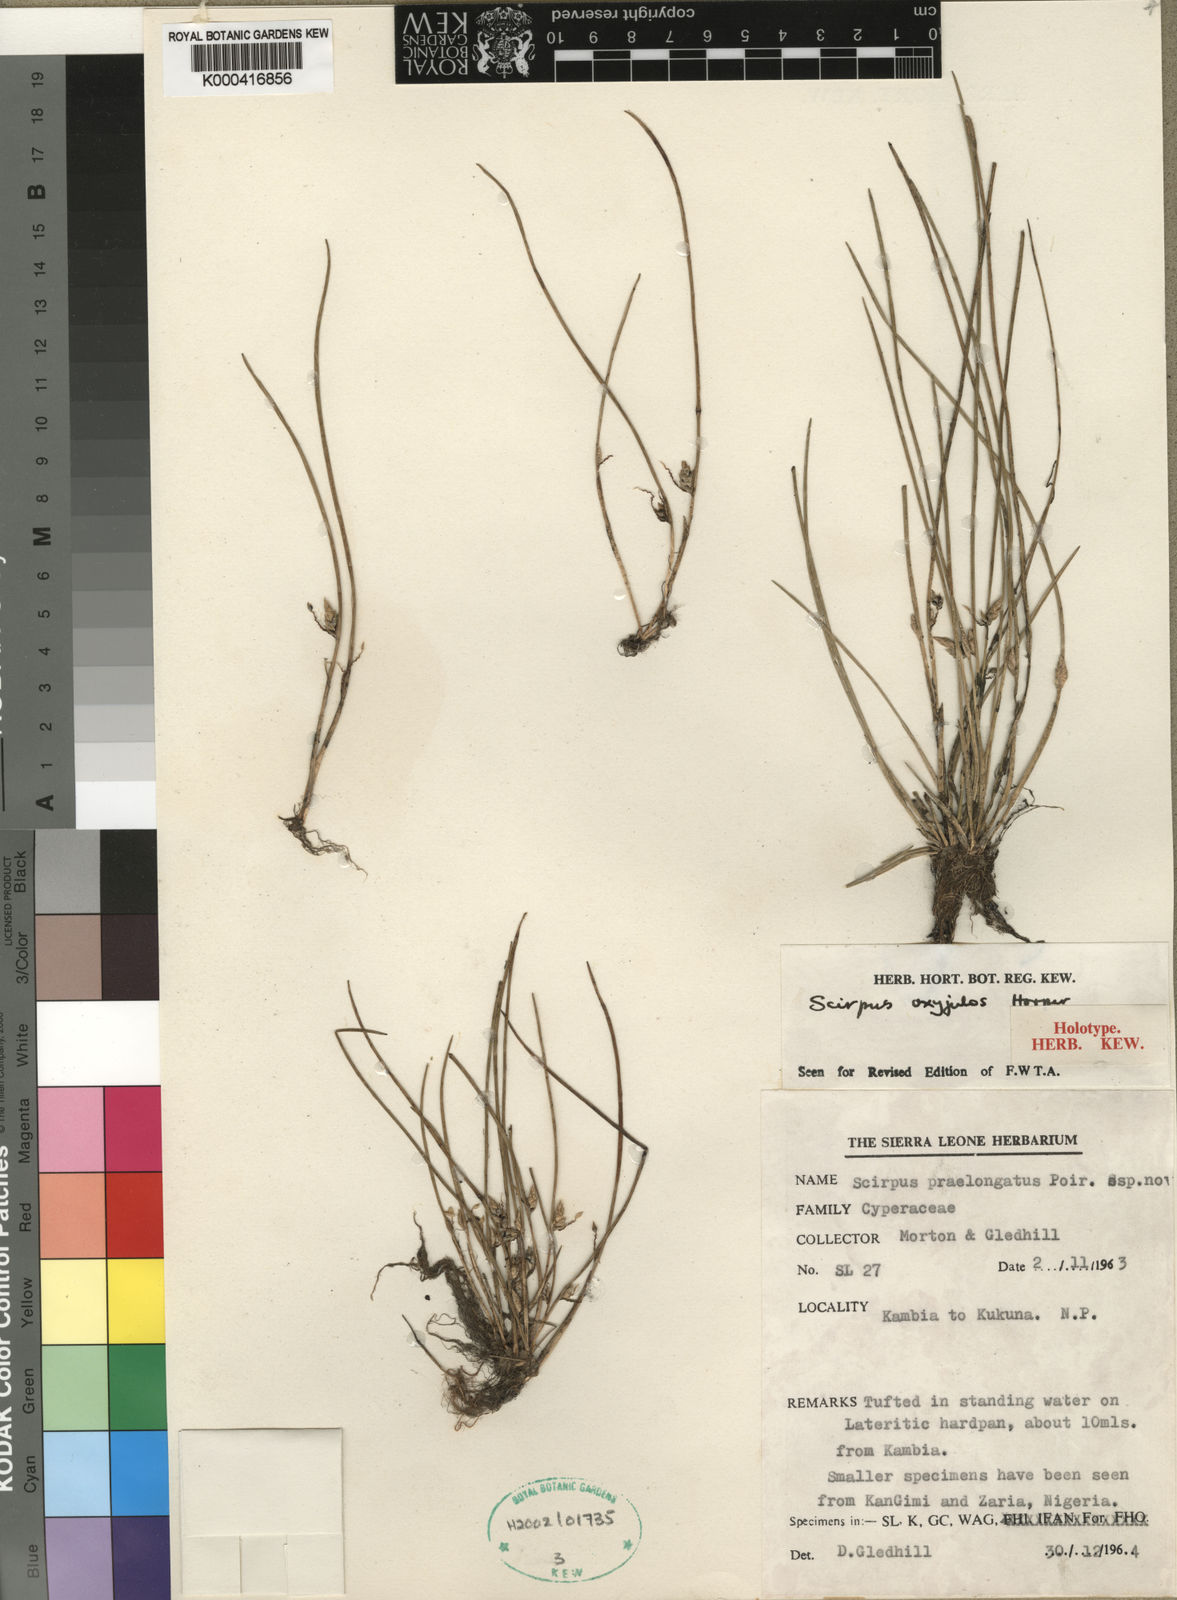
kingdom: Plantae
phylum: Tracheophyta
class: Liliopsida
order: Poales
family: Cyperaceae
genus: Schoenoplectiella
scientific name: Schoenoplectiella oxyjulos
